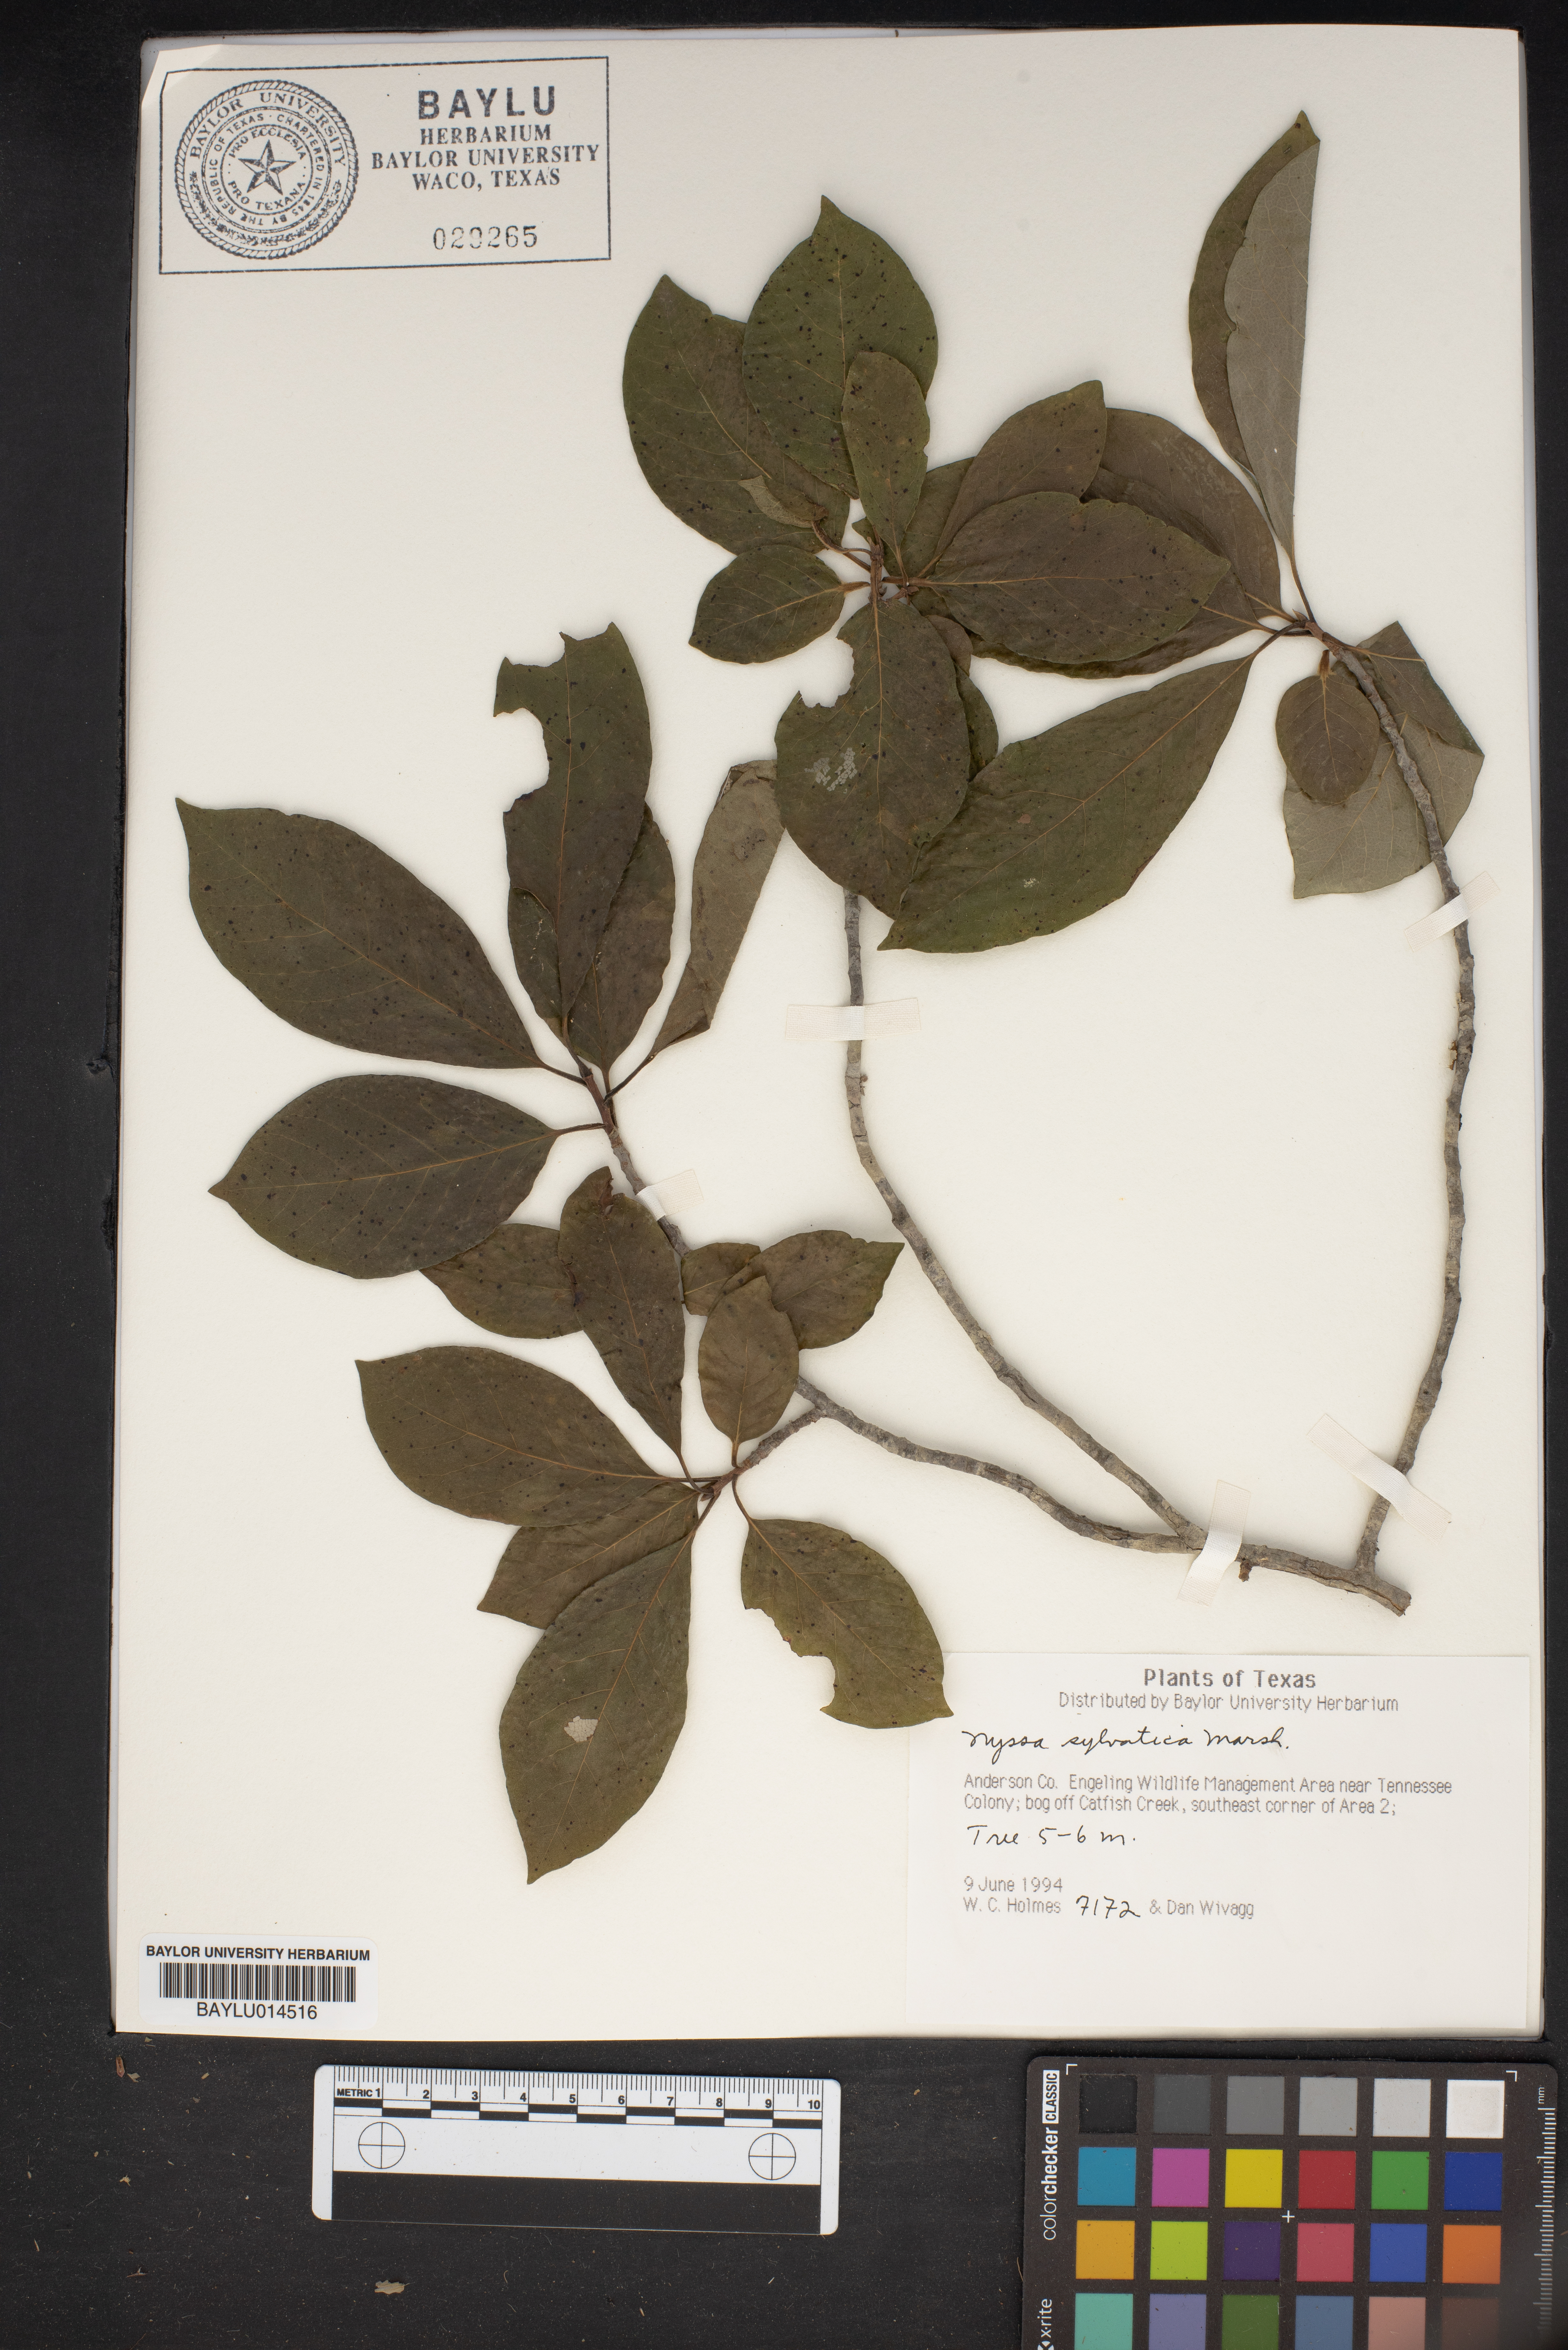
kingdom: Plantae
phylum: Tracheophyta
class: Magnoliopsida
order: Cornales
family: Nyssaceae
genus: Nyssa
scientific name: Nyssa sylvatica
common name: Black tupelo
